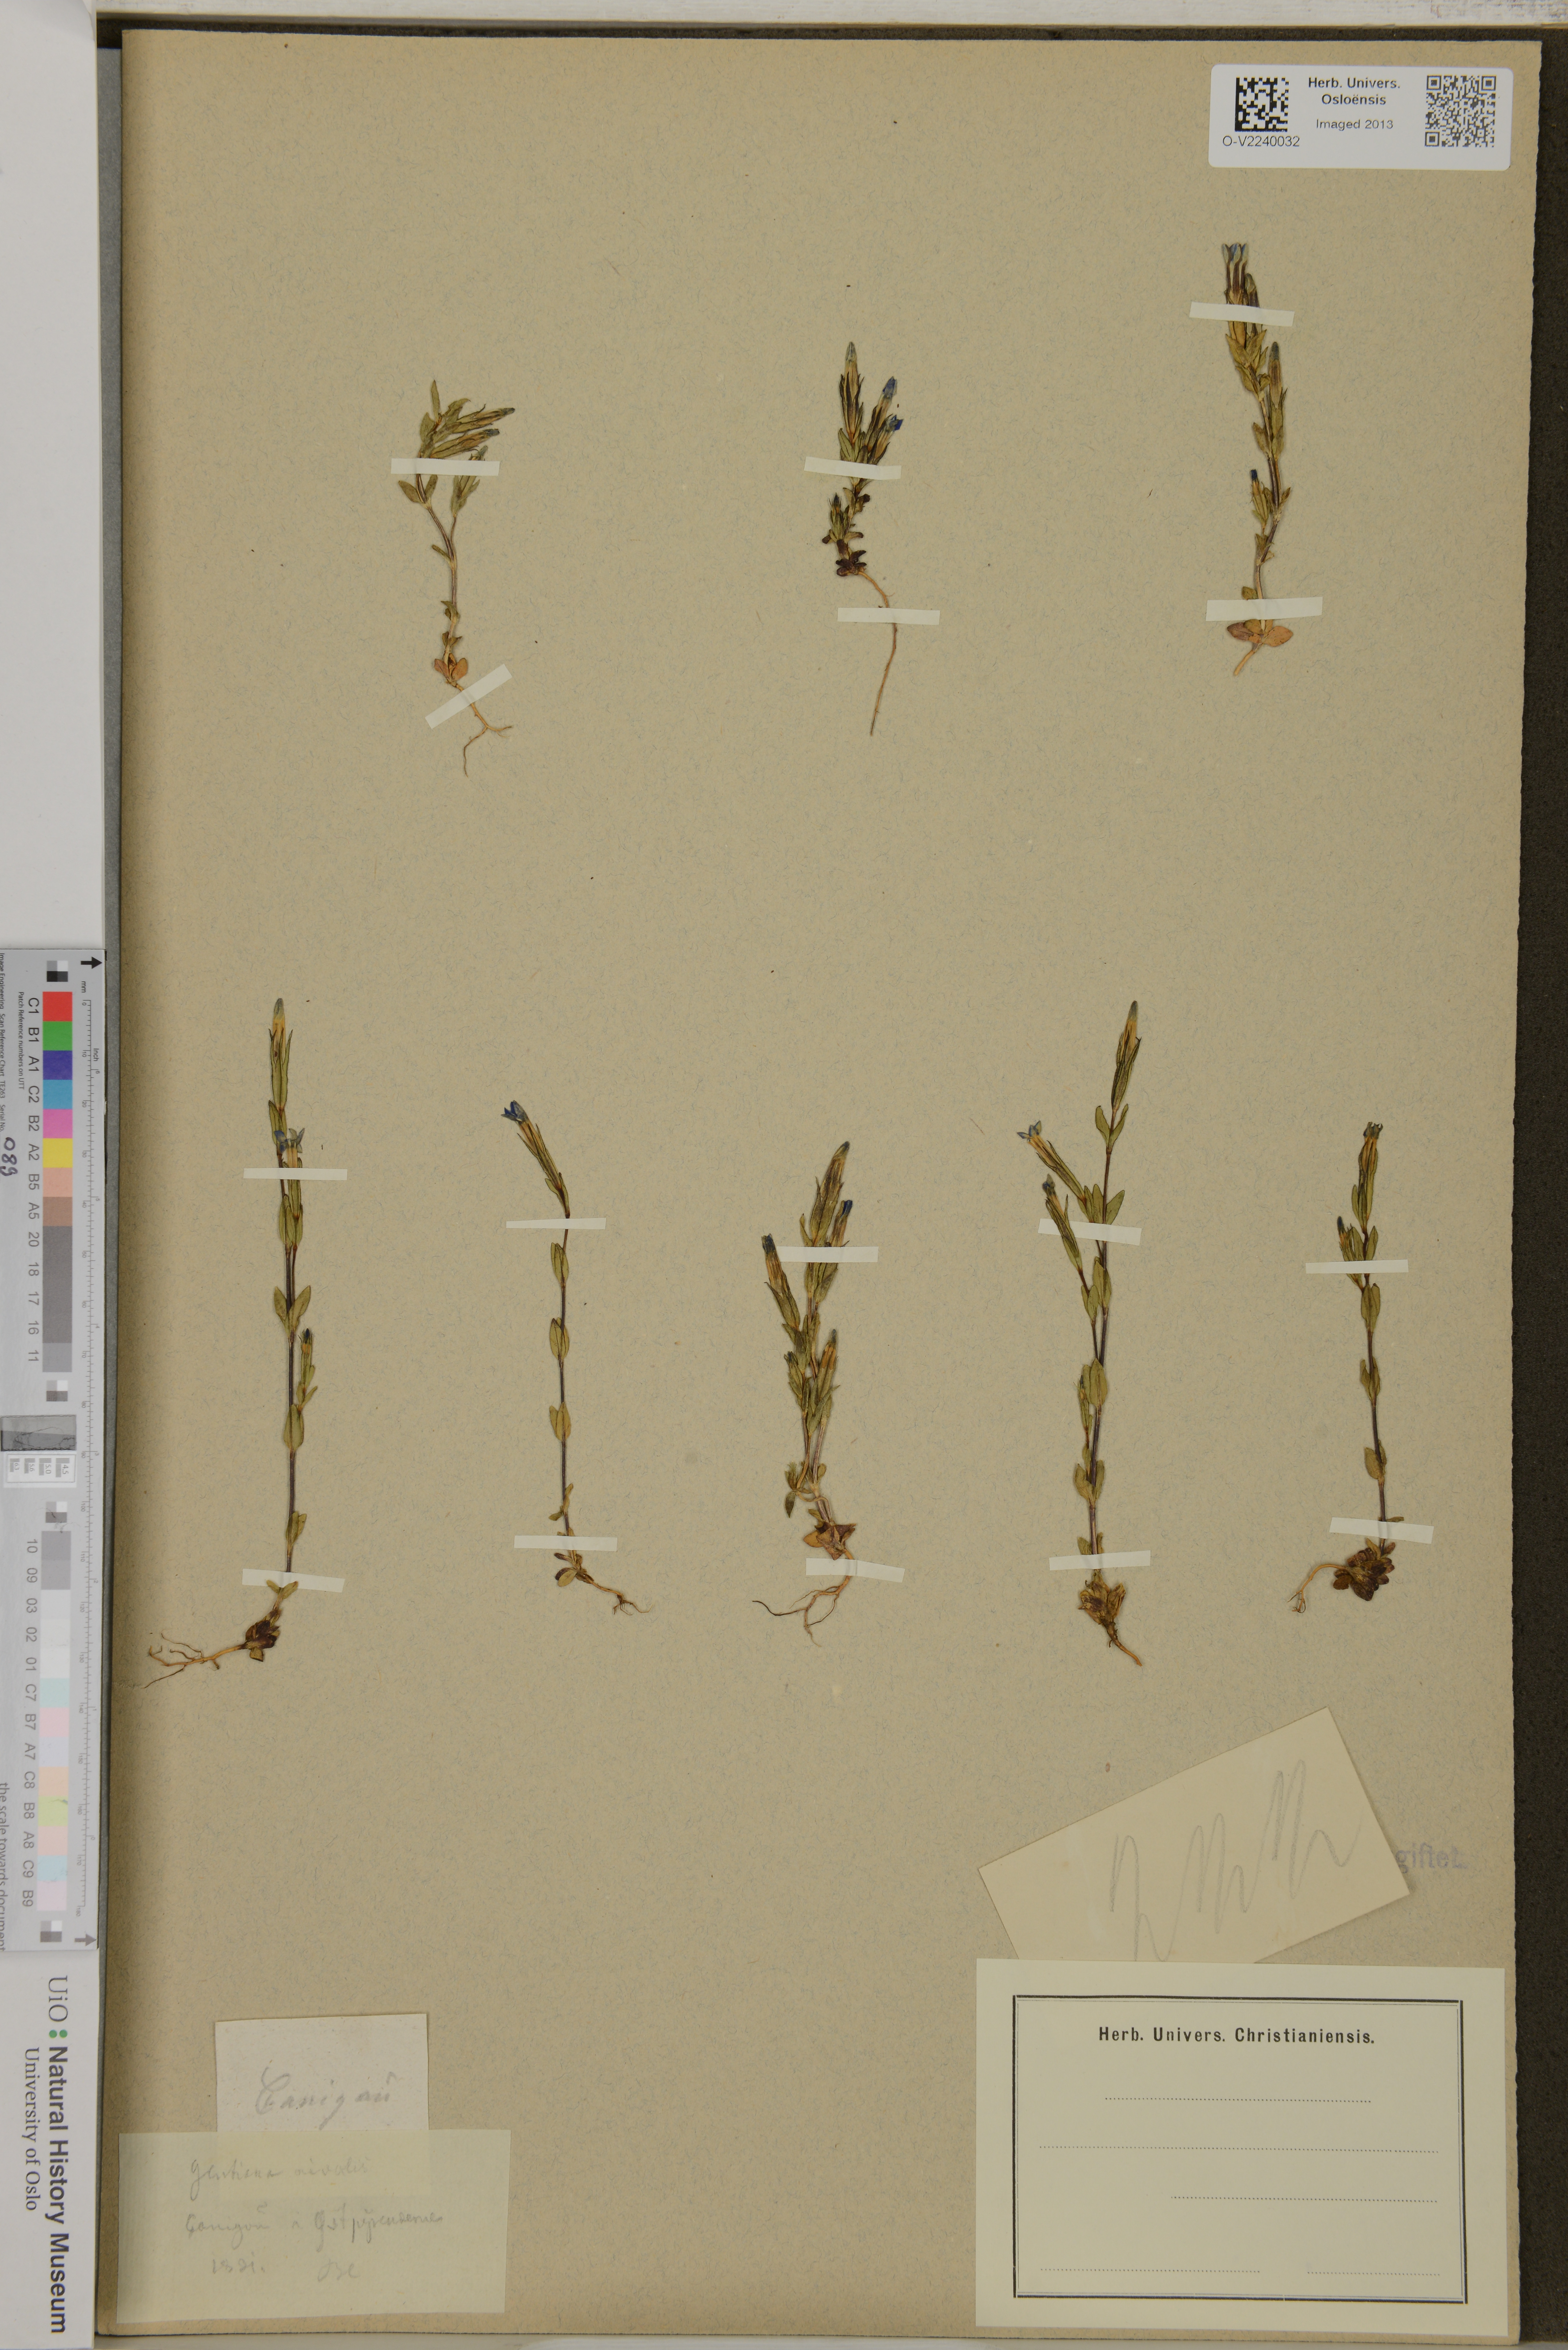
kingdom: Plantae
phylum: Tracheophyta
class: Magnoliopsida
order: Gentianales
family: Gentianaceae
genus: Gentiana
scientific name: Gentiana nivalis
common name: Alpine gentian
